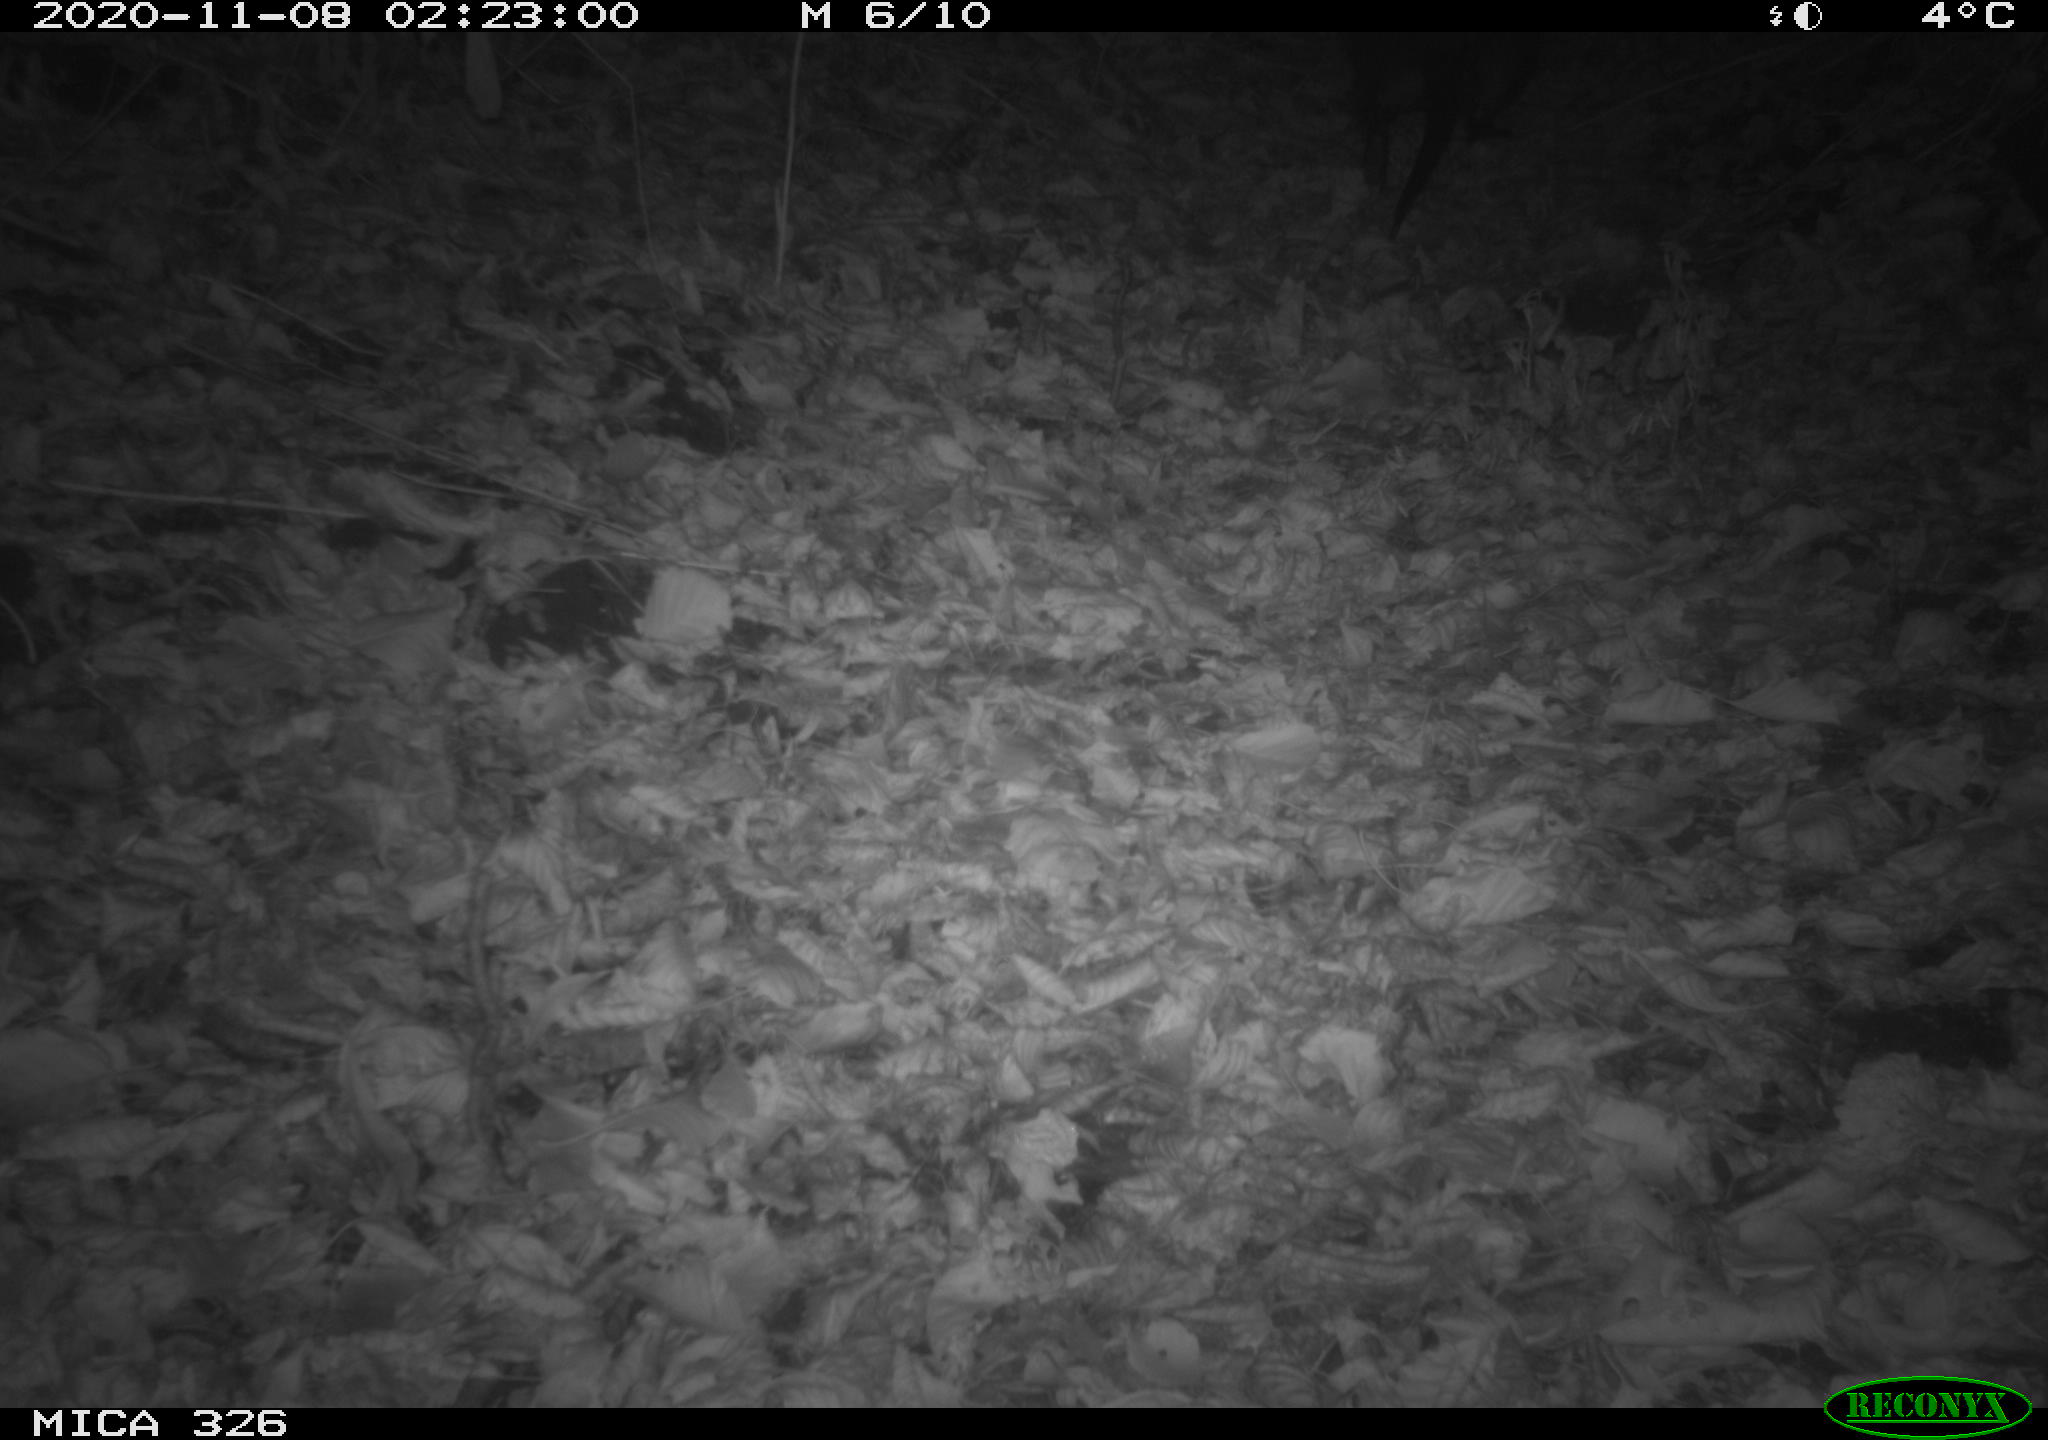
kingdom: Animalia
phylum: Chordata
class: Mammalia
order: Rodentia
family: Myocastoridae
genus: Myocastor
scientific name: Myocastor coypus
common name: Coypu
